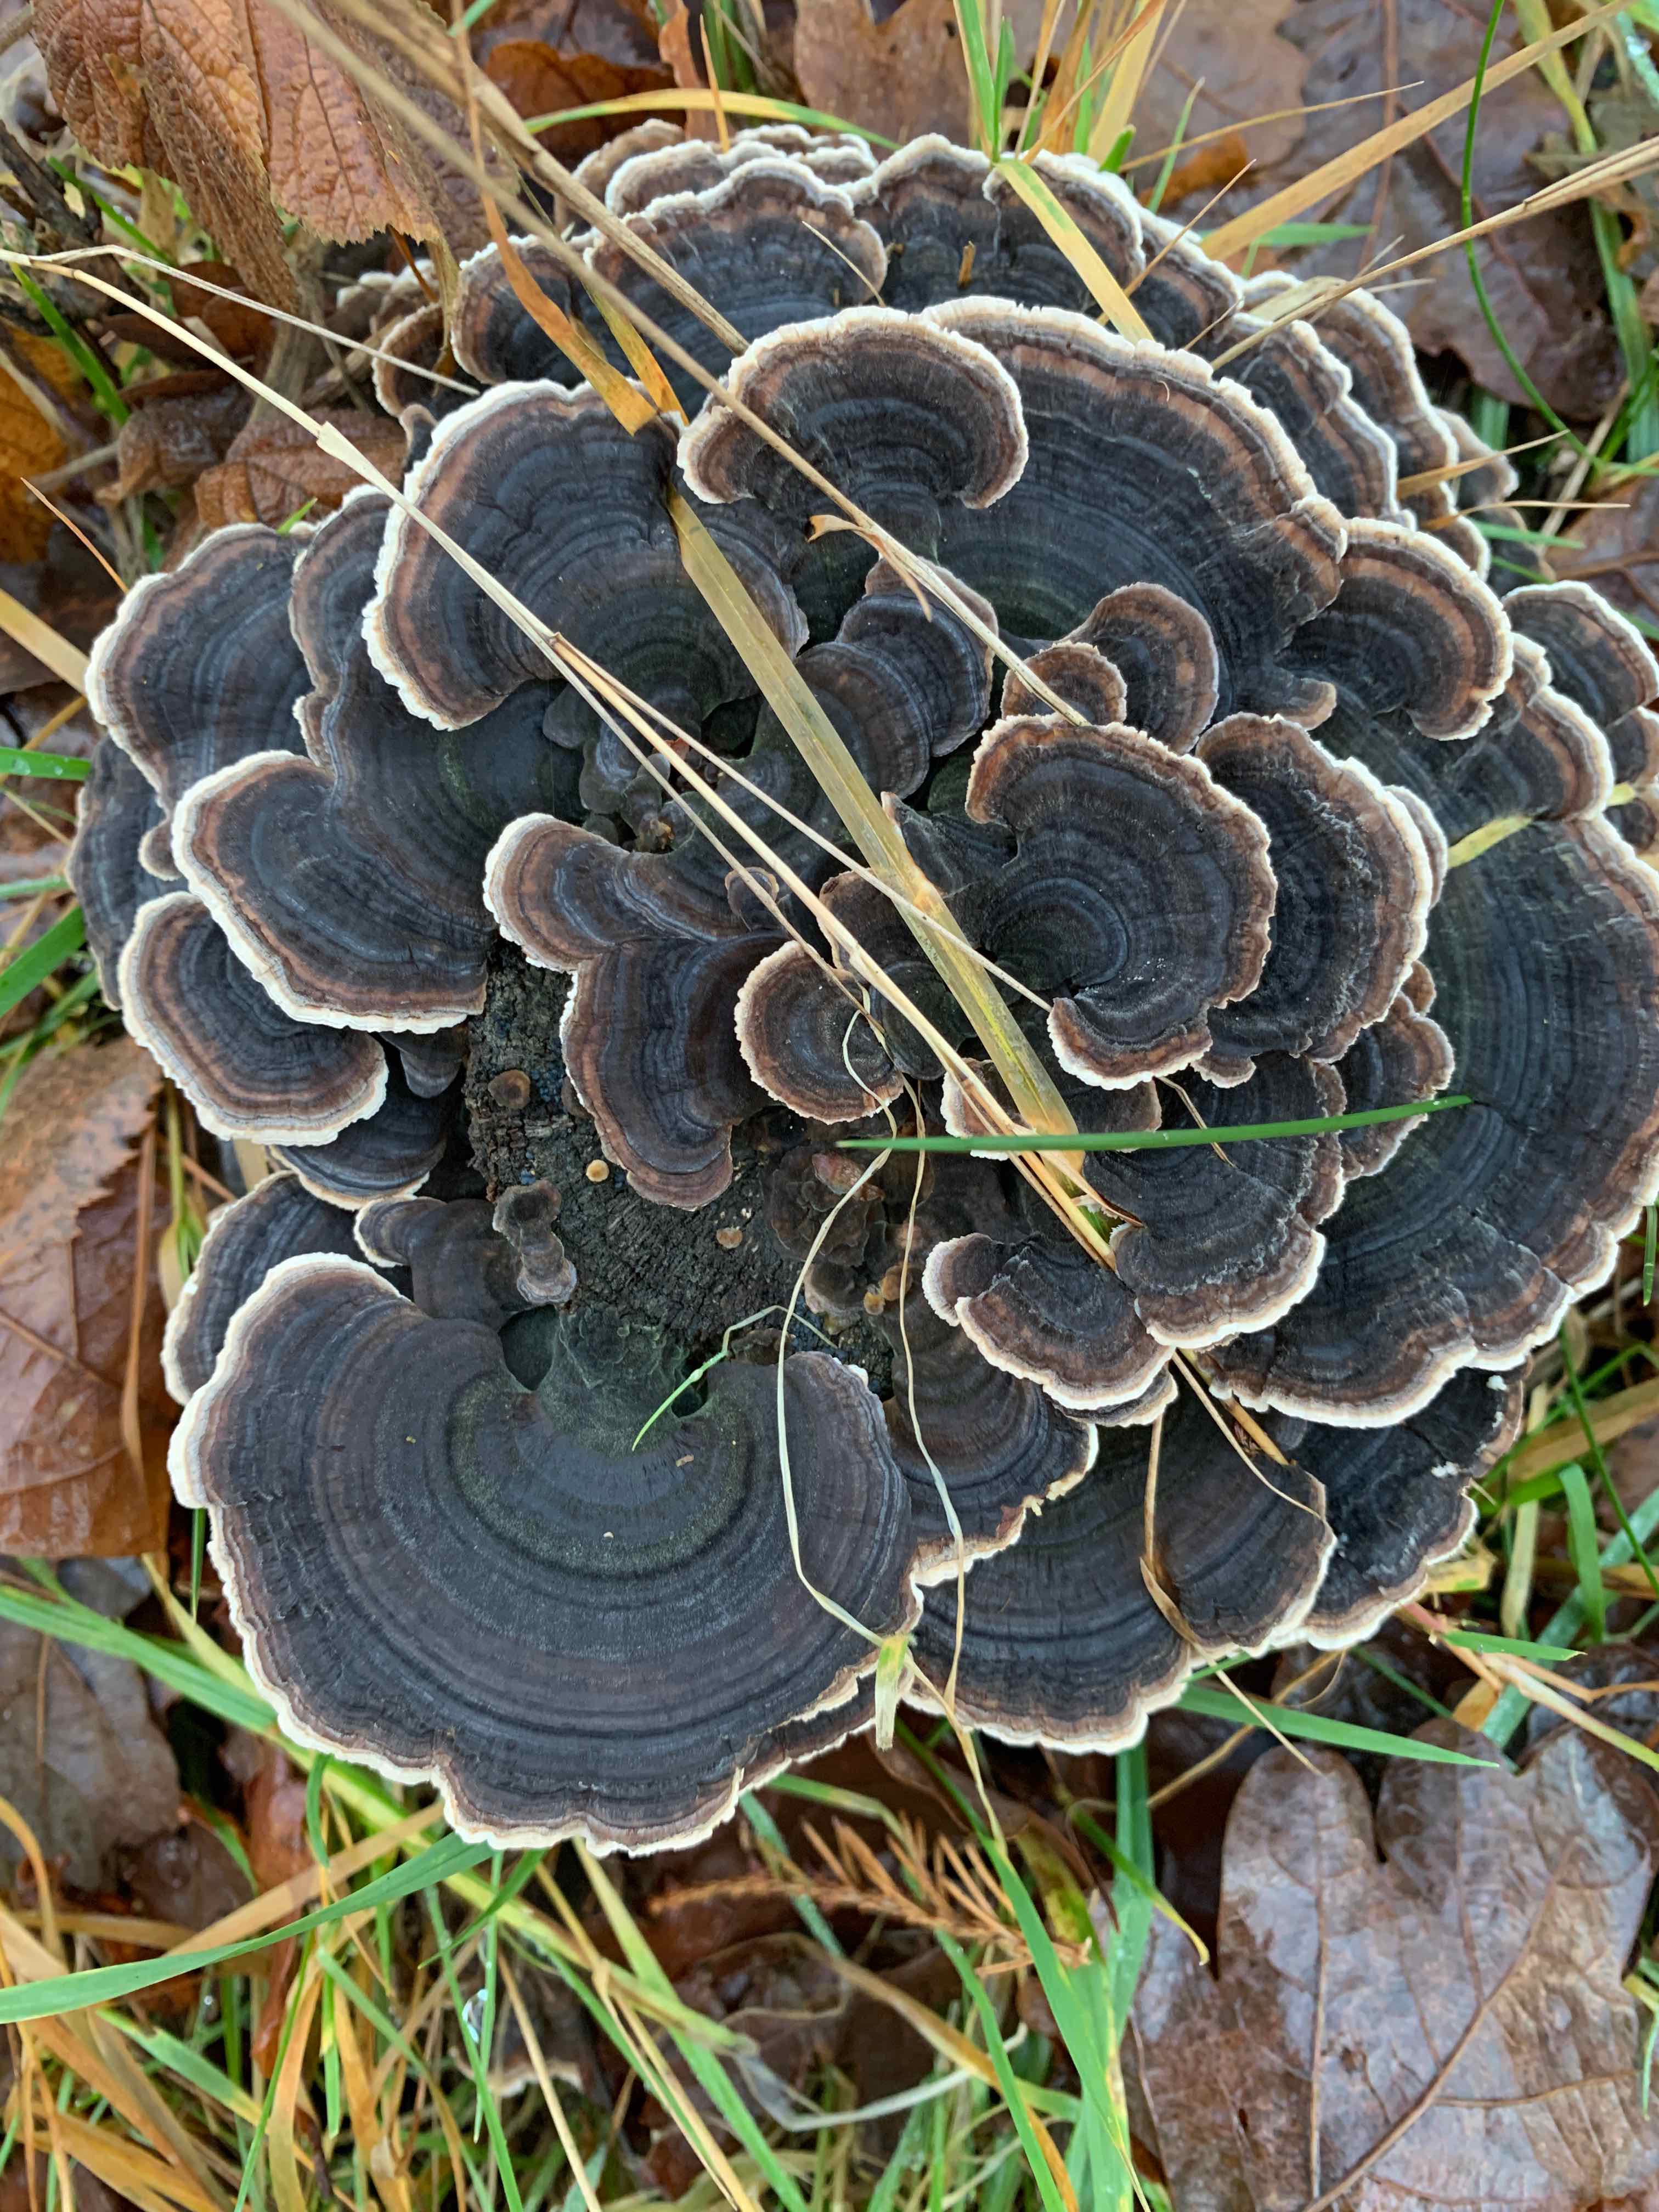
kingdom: Fungi
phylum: Basidiomycota
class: Agaricomycetes
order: Polyporales
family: Polyporaceae
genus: Trametes
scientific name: Trametes versicolor
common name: broget læderporesvamp
